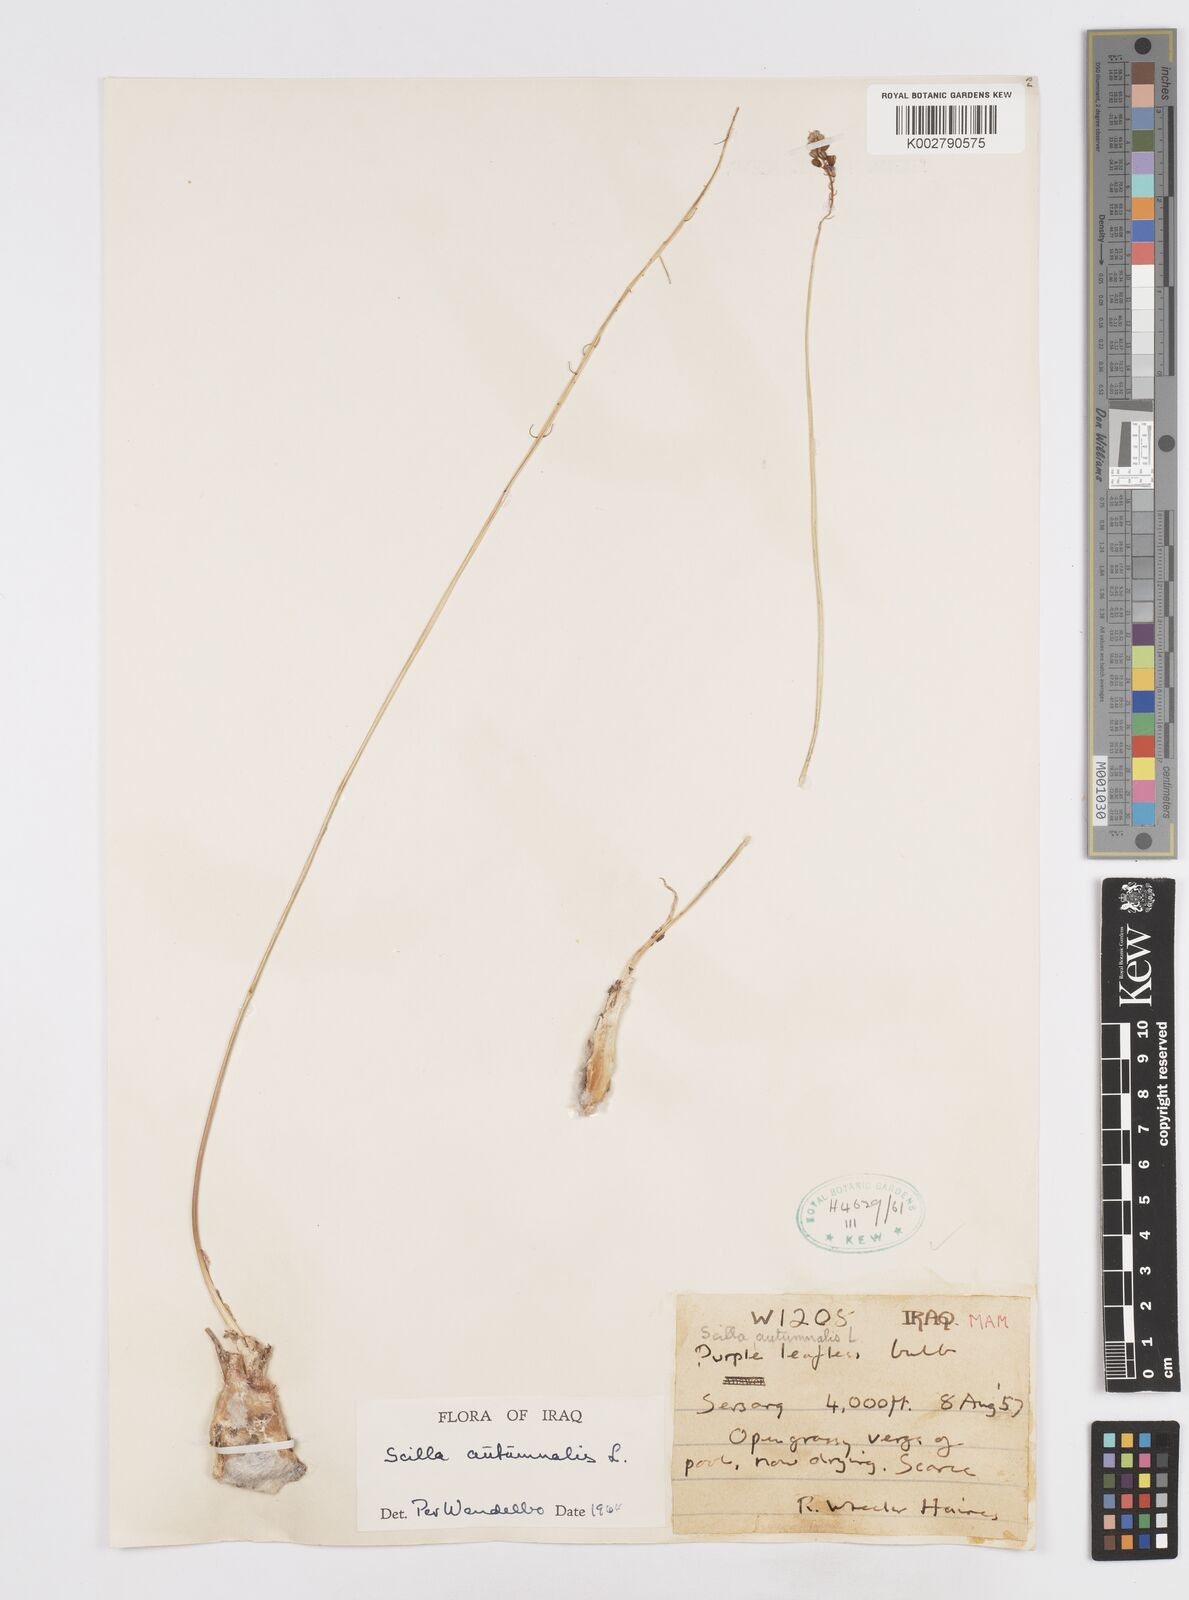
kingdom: Plantae
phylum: Tracheophyta
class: Liliopsida
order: Asparagales
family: Asparagaceae
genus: Prospero
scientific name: Prospero autumnale
